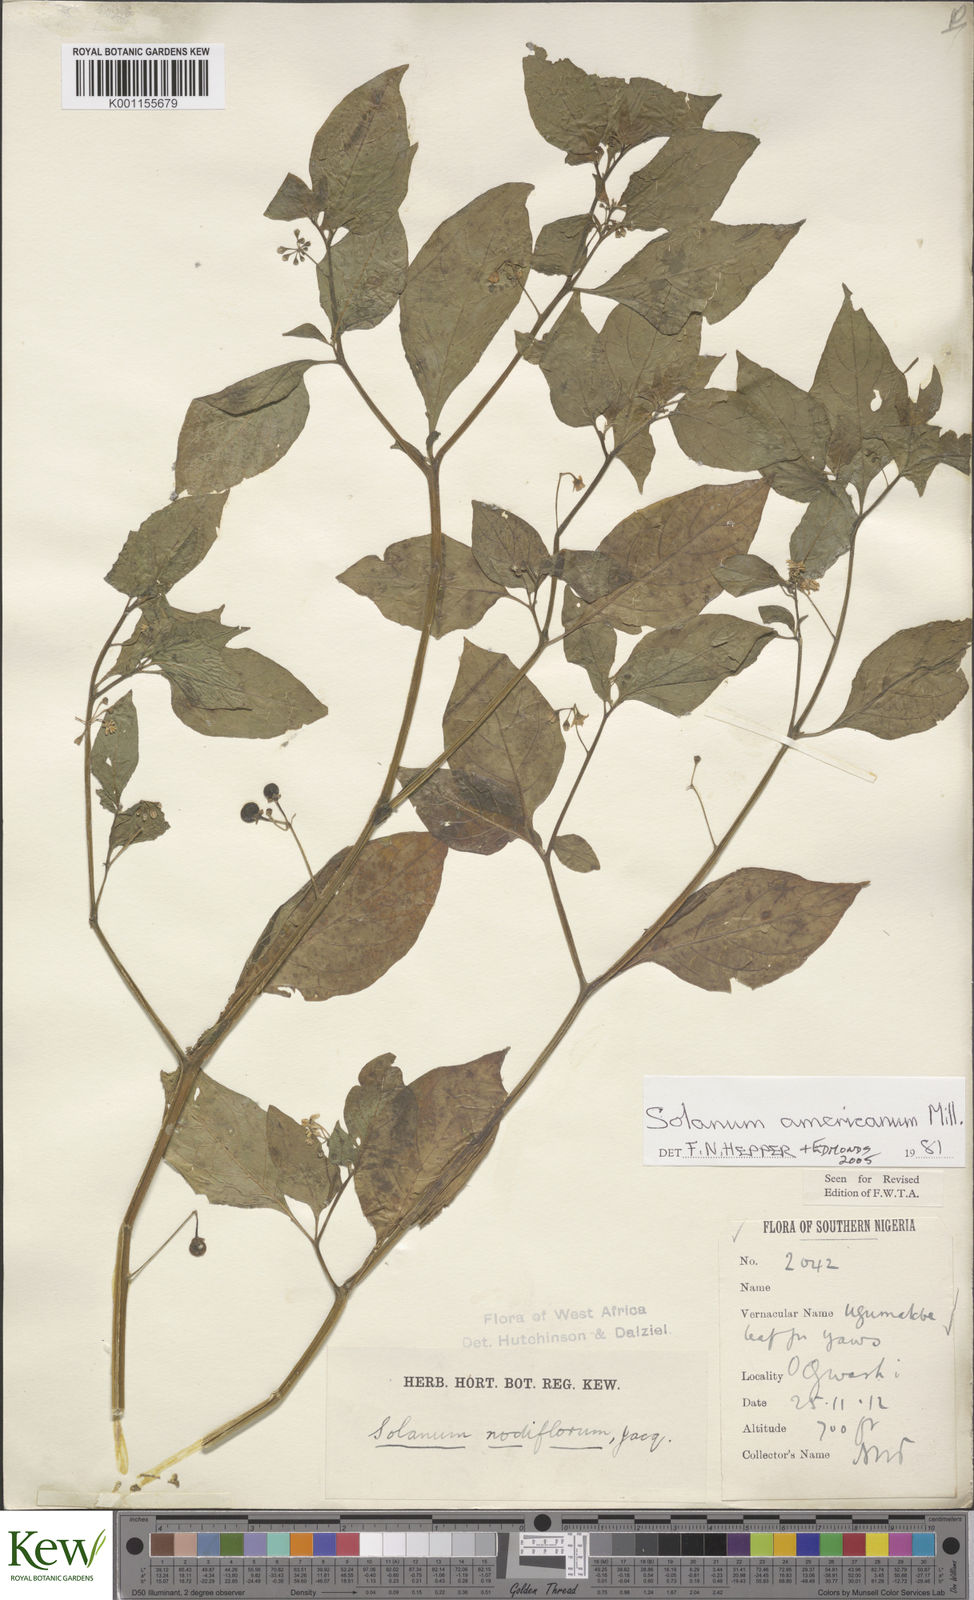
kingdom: Plantae
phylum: Tracheophyta
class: Magnoliopsida
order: Solanales
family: Solanaceae
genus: Solanum
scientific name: Solanum scabrum
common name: Garden-huckleberry
